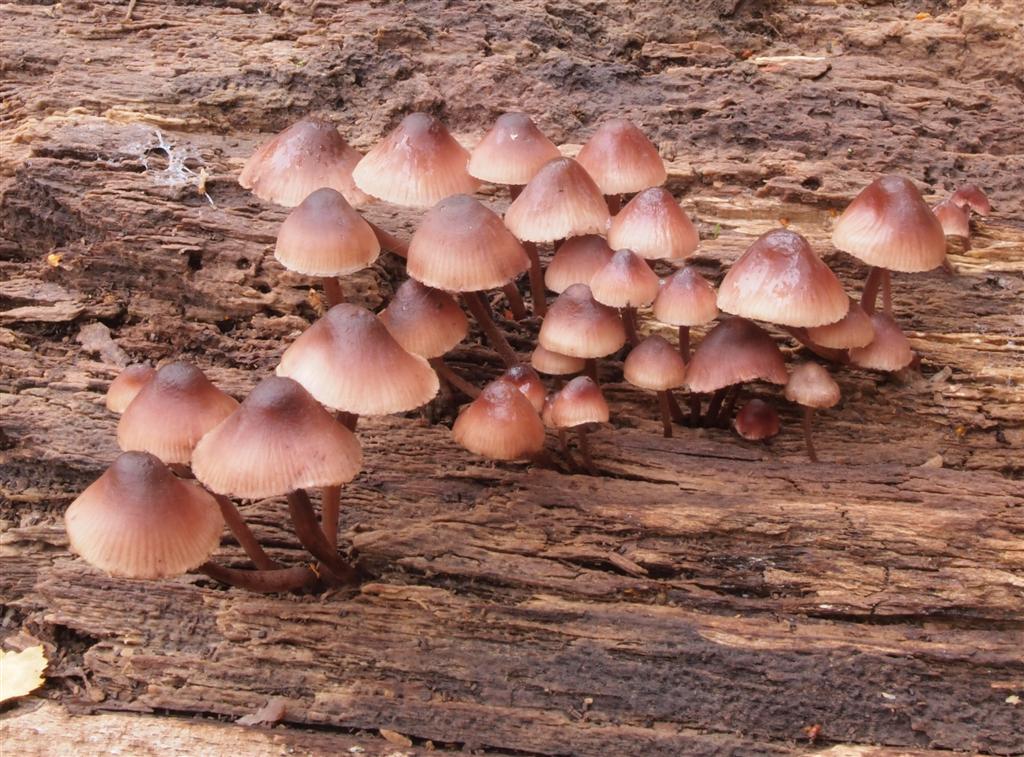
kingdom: Fungi
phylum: Basidiomycota
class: Agaricomycetes
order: Agaricales
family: Mycenaceae
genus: Mycena
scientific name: Mycena haematopus
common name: blødende huesvamp
